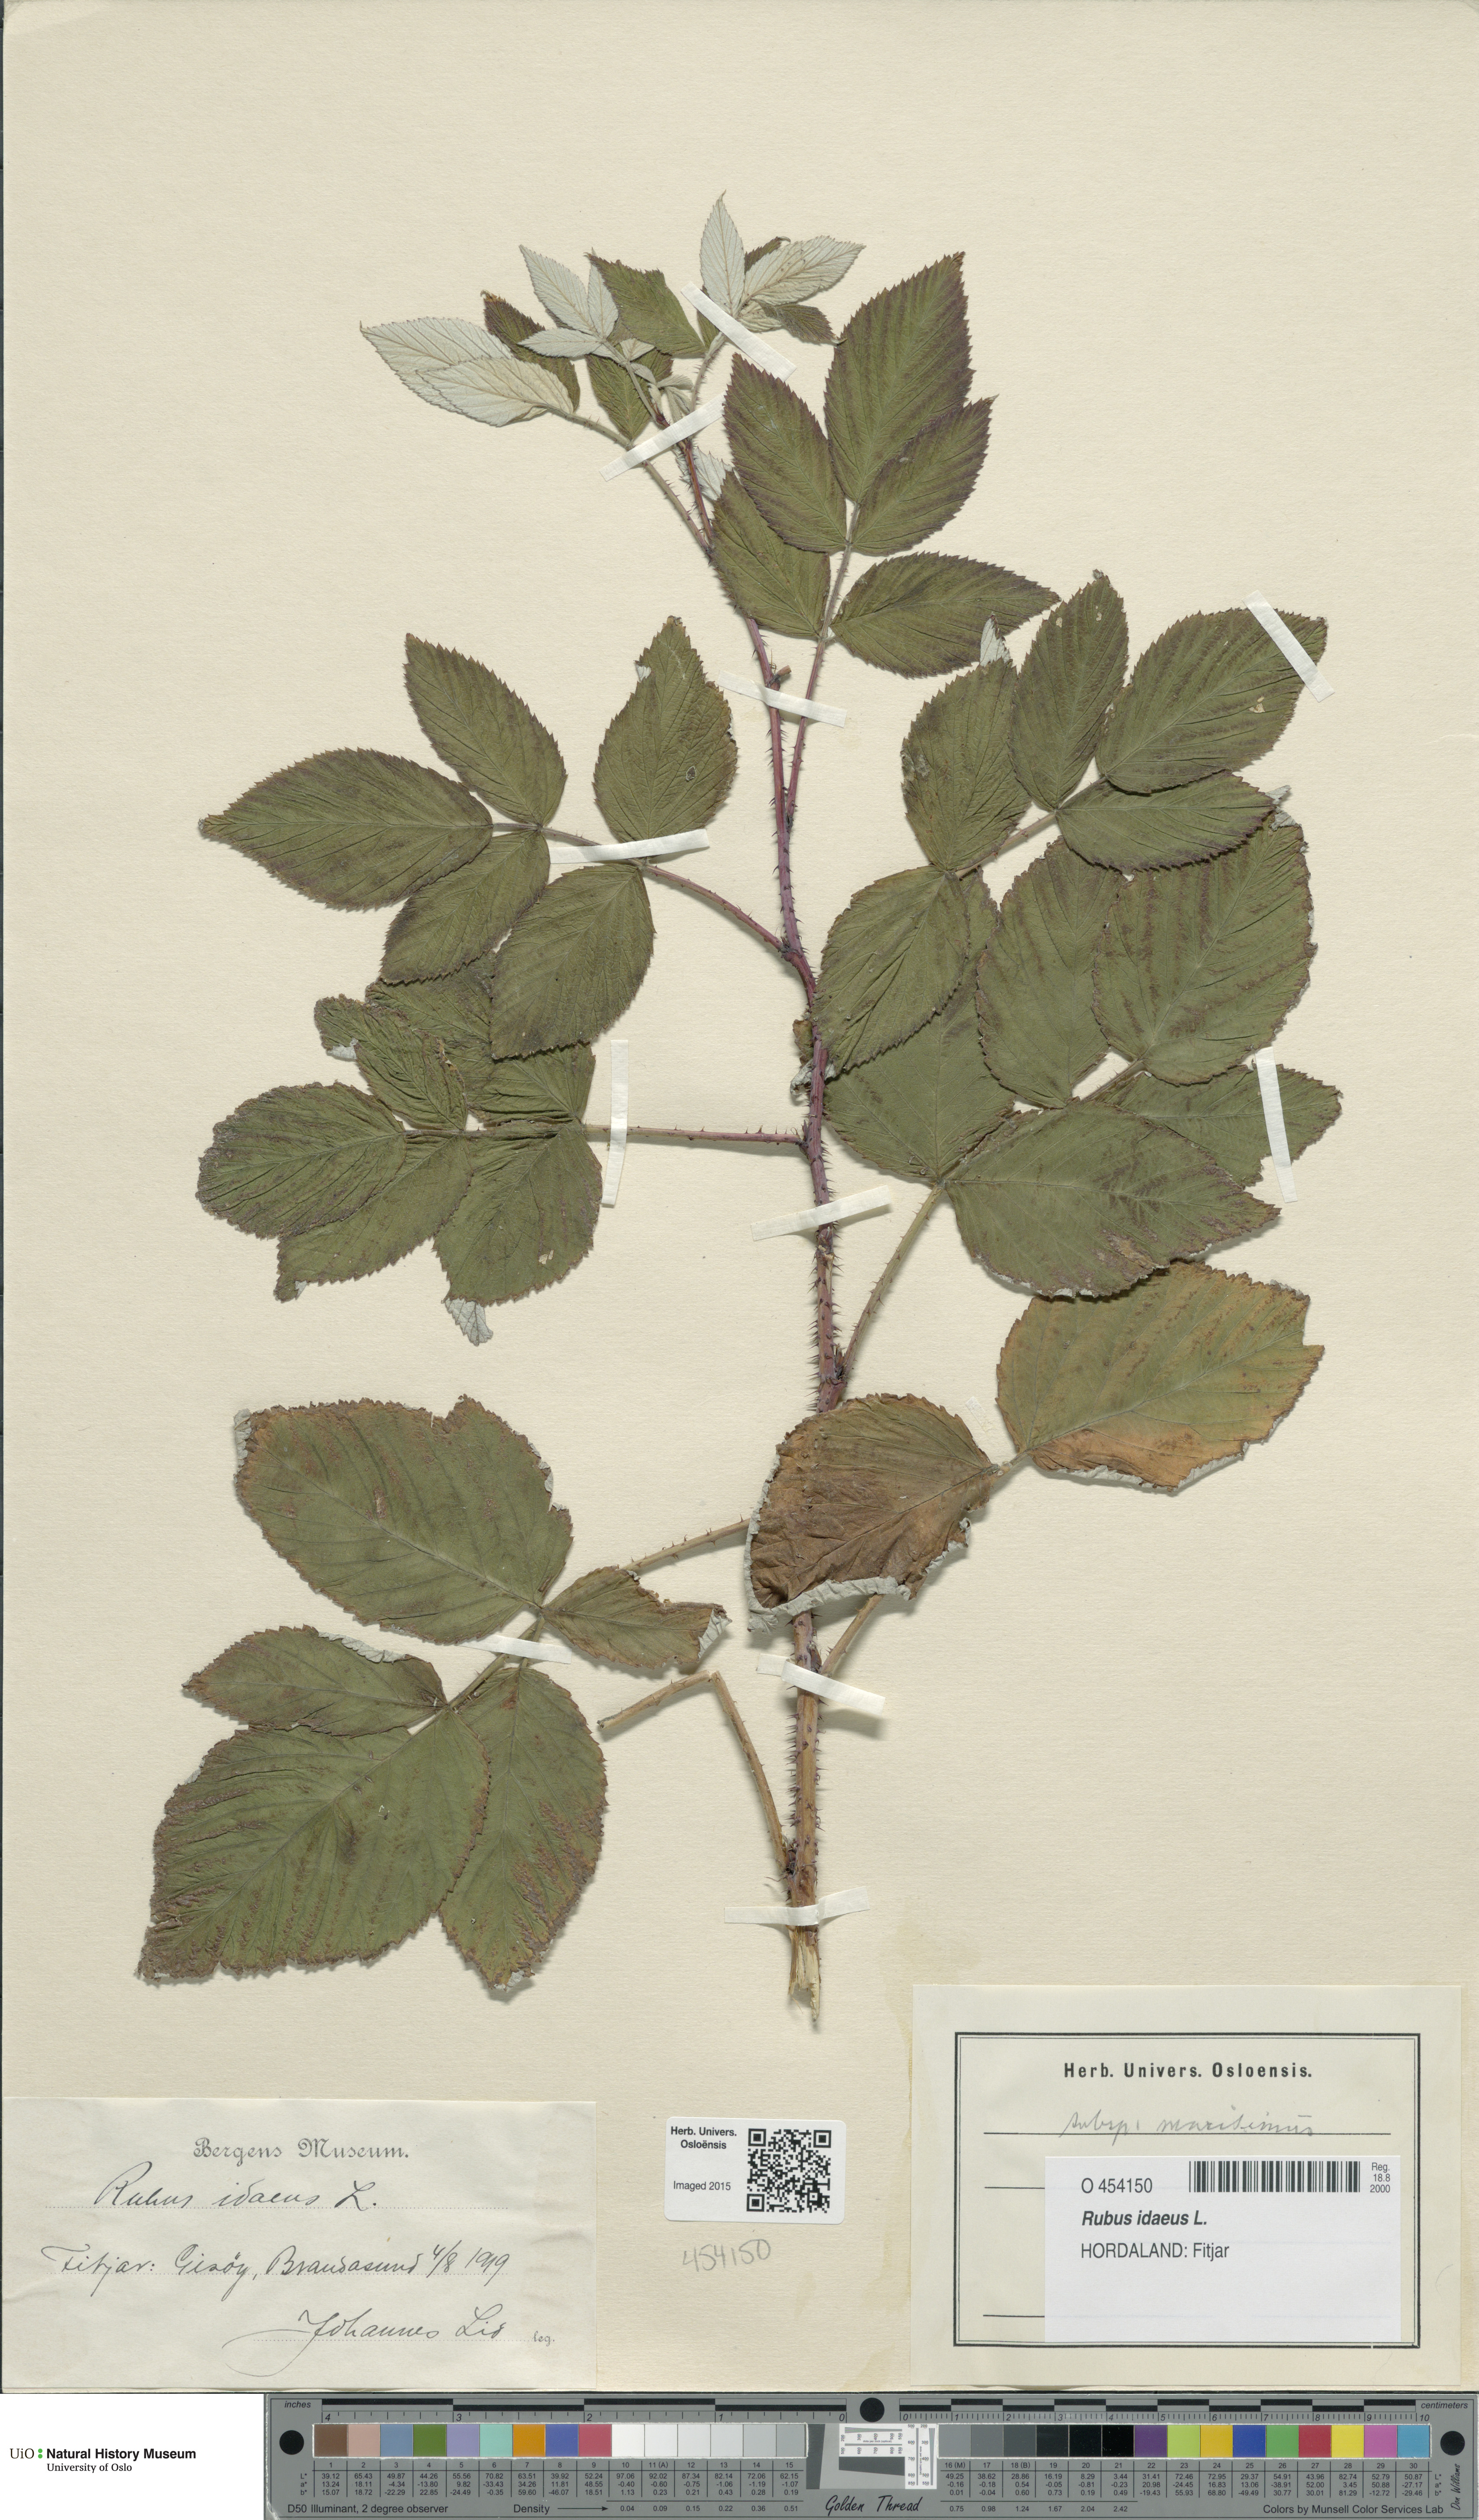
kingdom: Plantae
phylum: Tracheophyta
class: Magnoliopsida
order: Rosales
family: Rosaceae
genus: Rubus
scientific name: Rubus idaeus
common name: Raspberry
